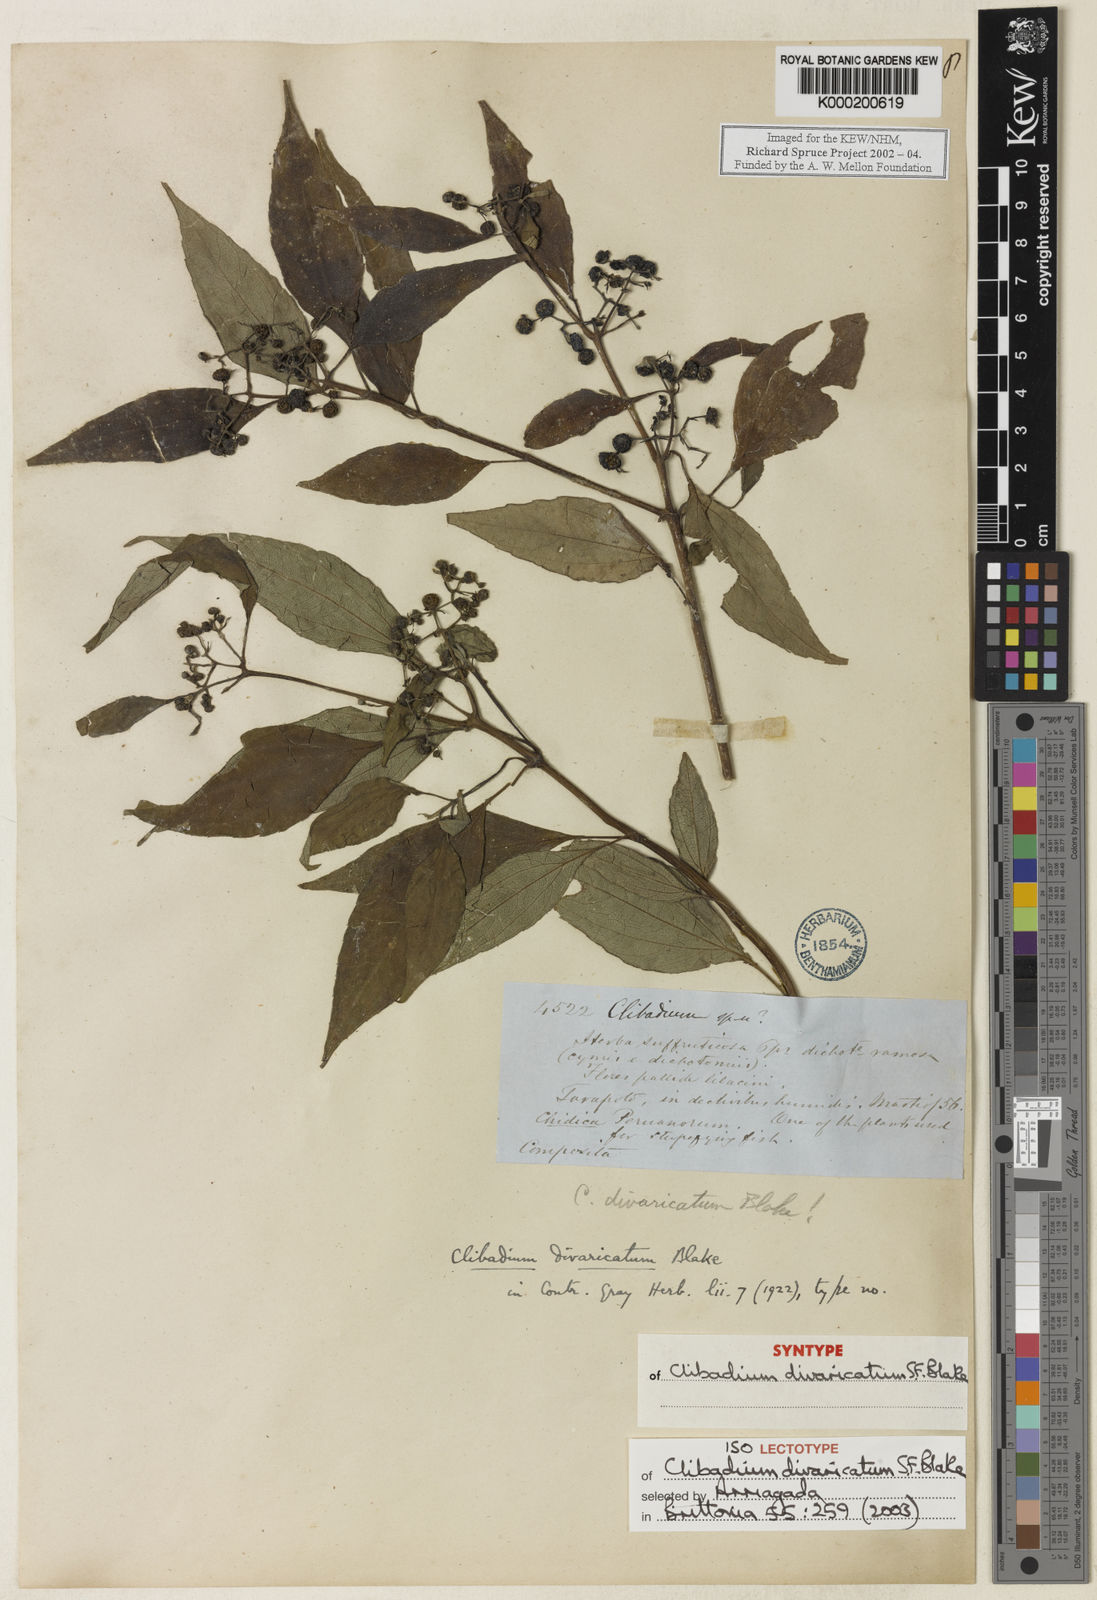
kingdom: Plantae
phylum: Tracheophyta
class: Magnoliopsida
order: Asterales
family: Asteraceae
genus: Clibadium
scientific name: Clibadium divaricatum
